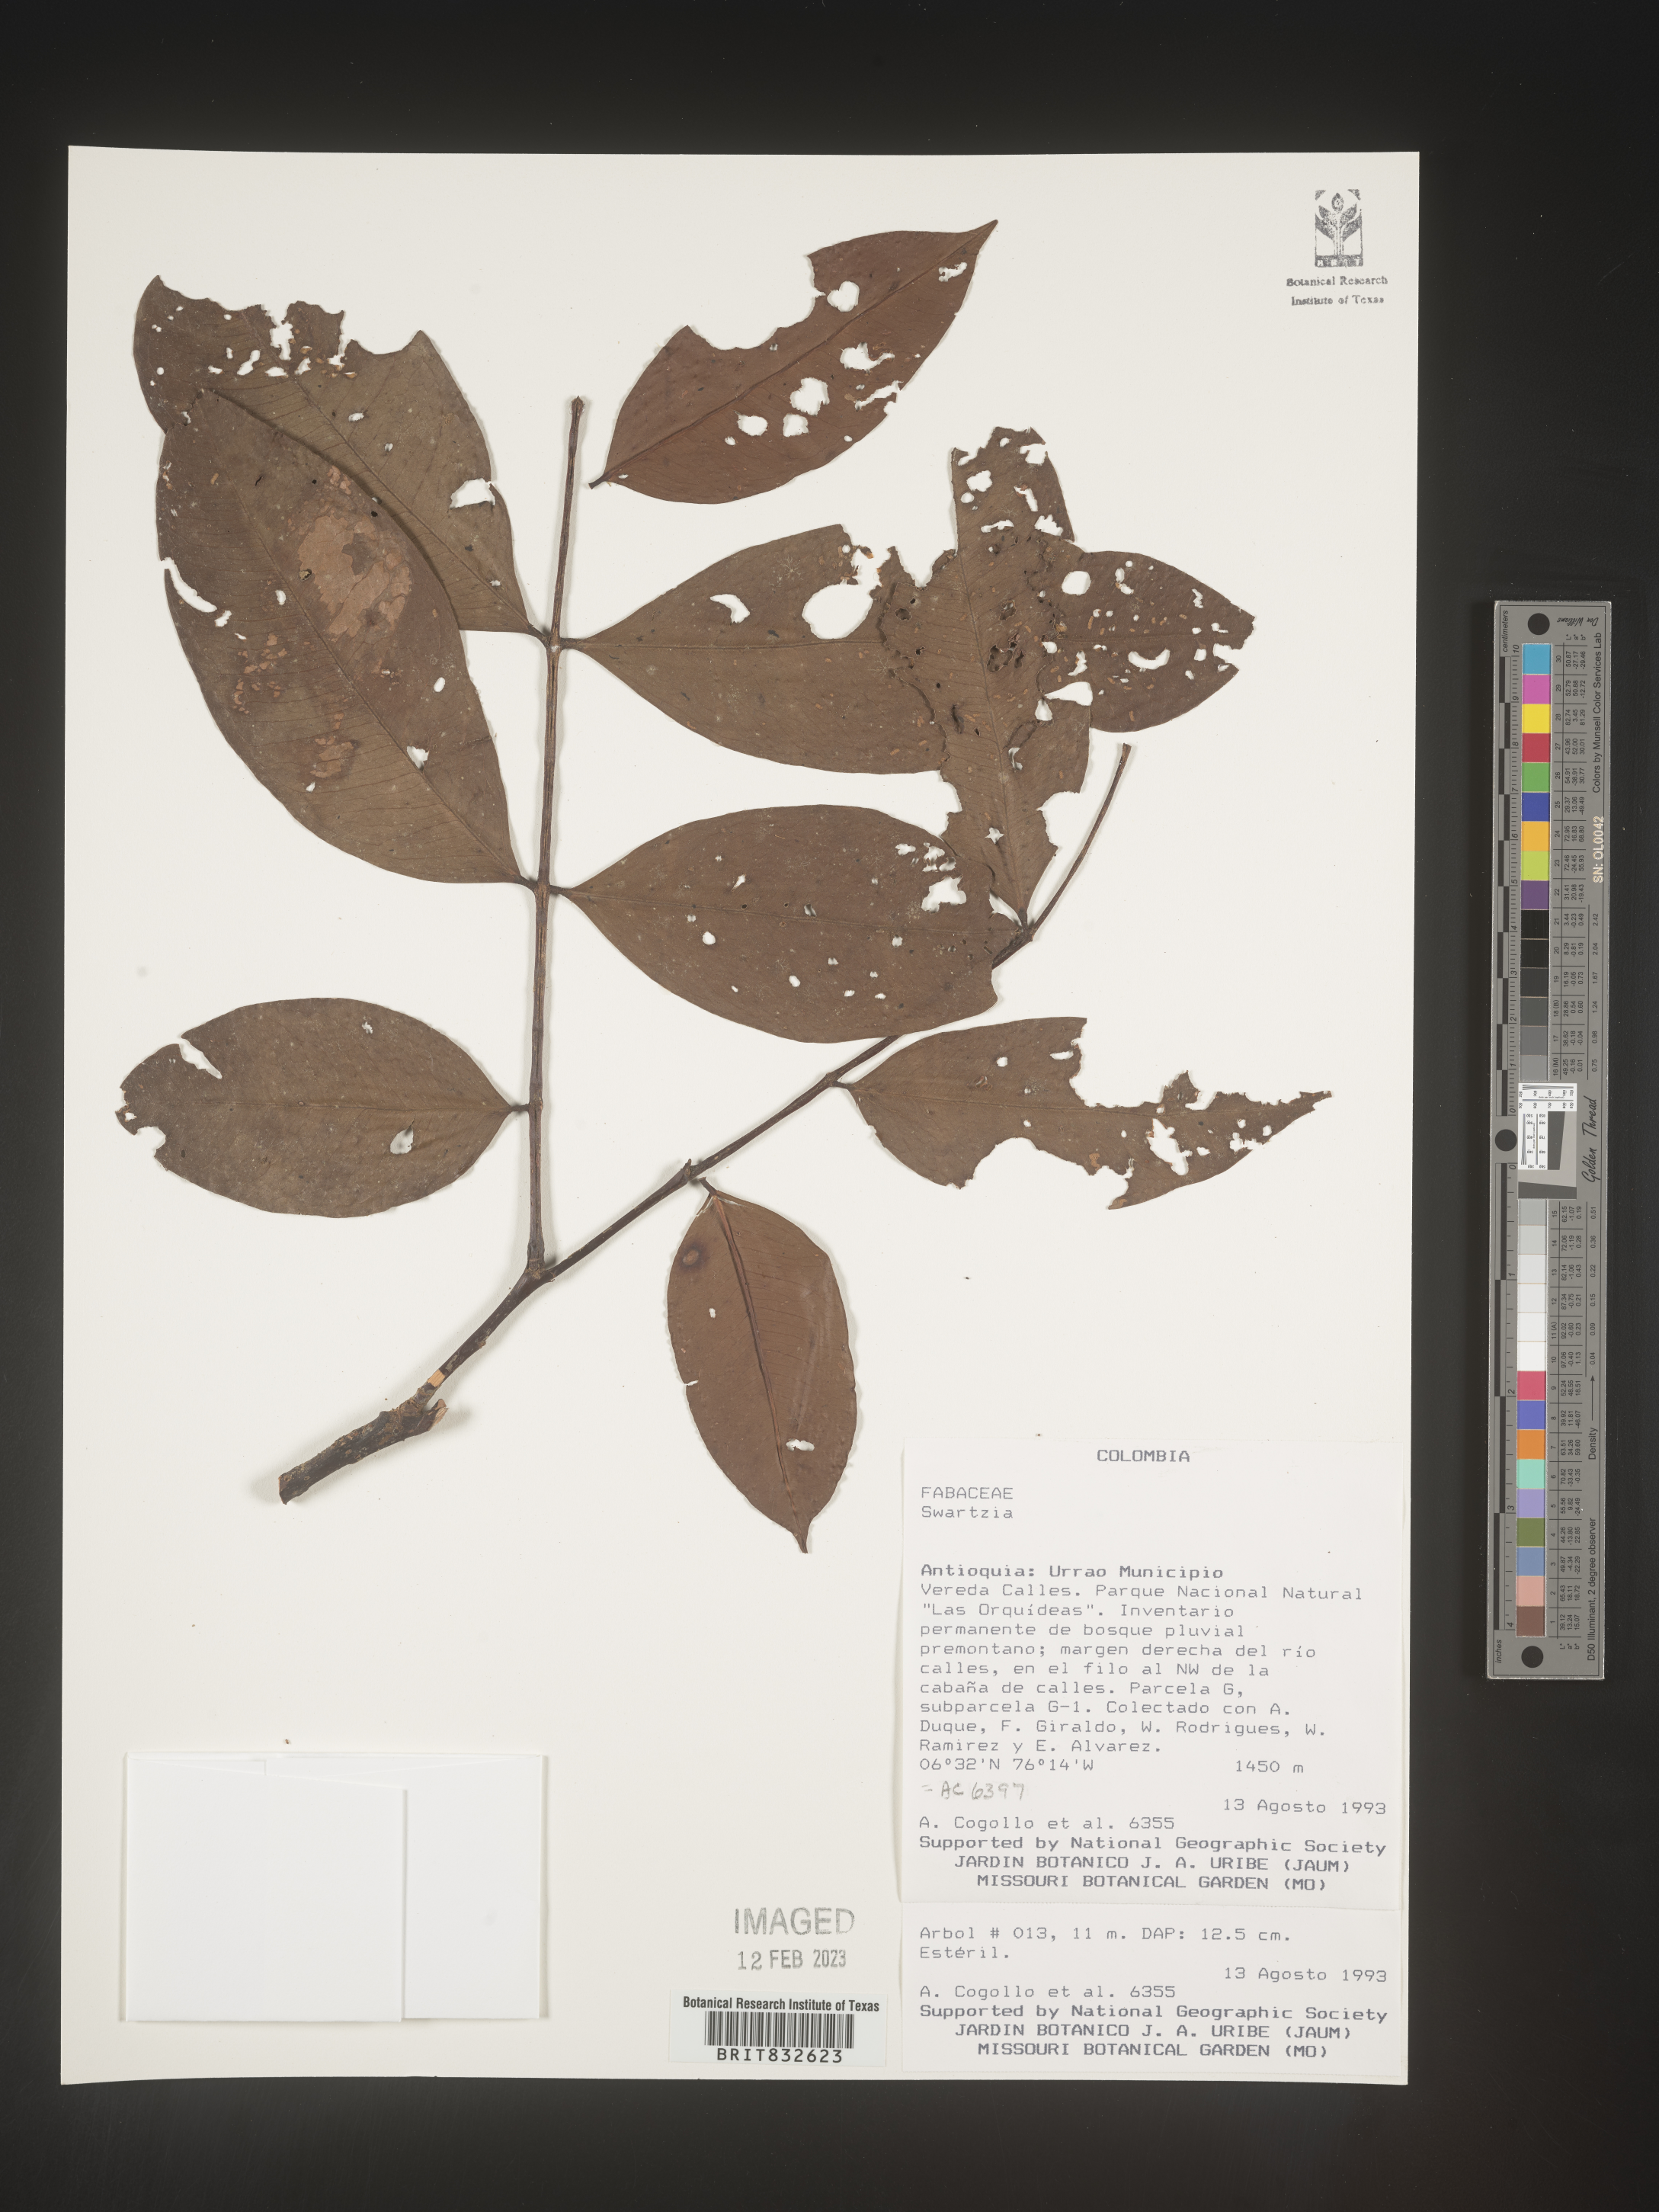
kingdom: Plantae
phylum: Tracheophyta
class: Magnoliopsida
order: Fabales
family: Fabaceae
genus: Swartzia
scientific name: Swartzia
